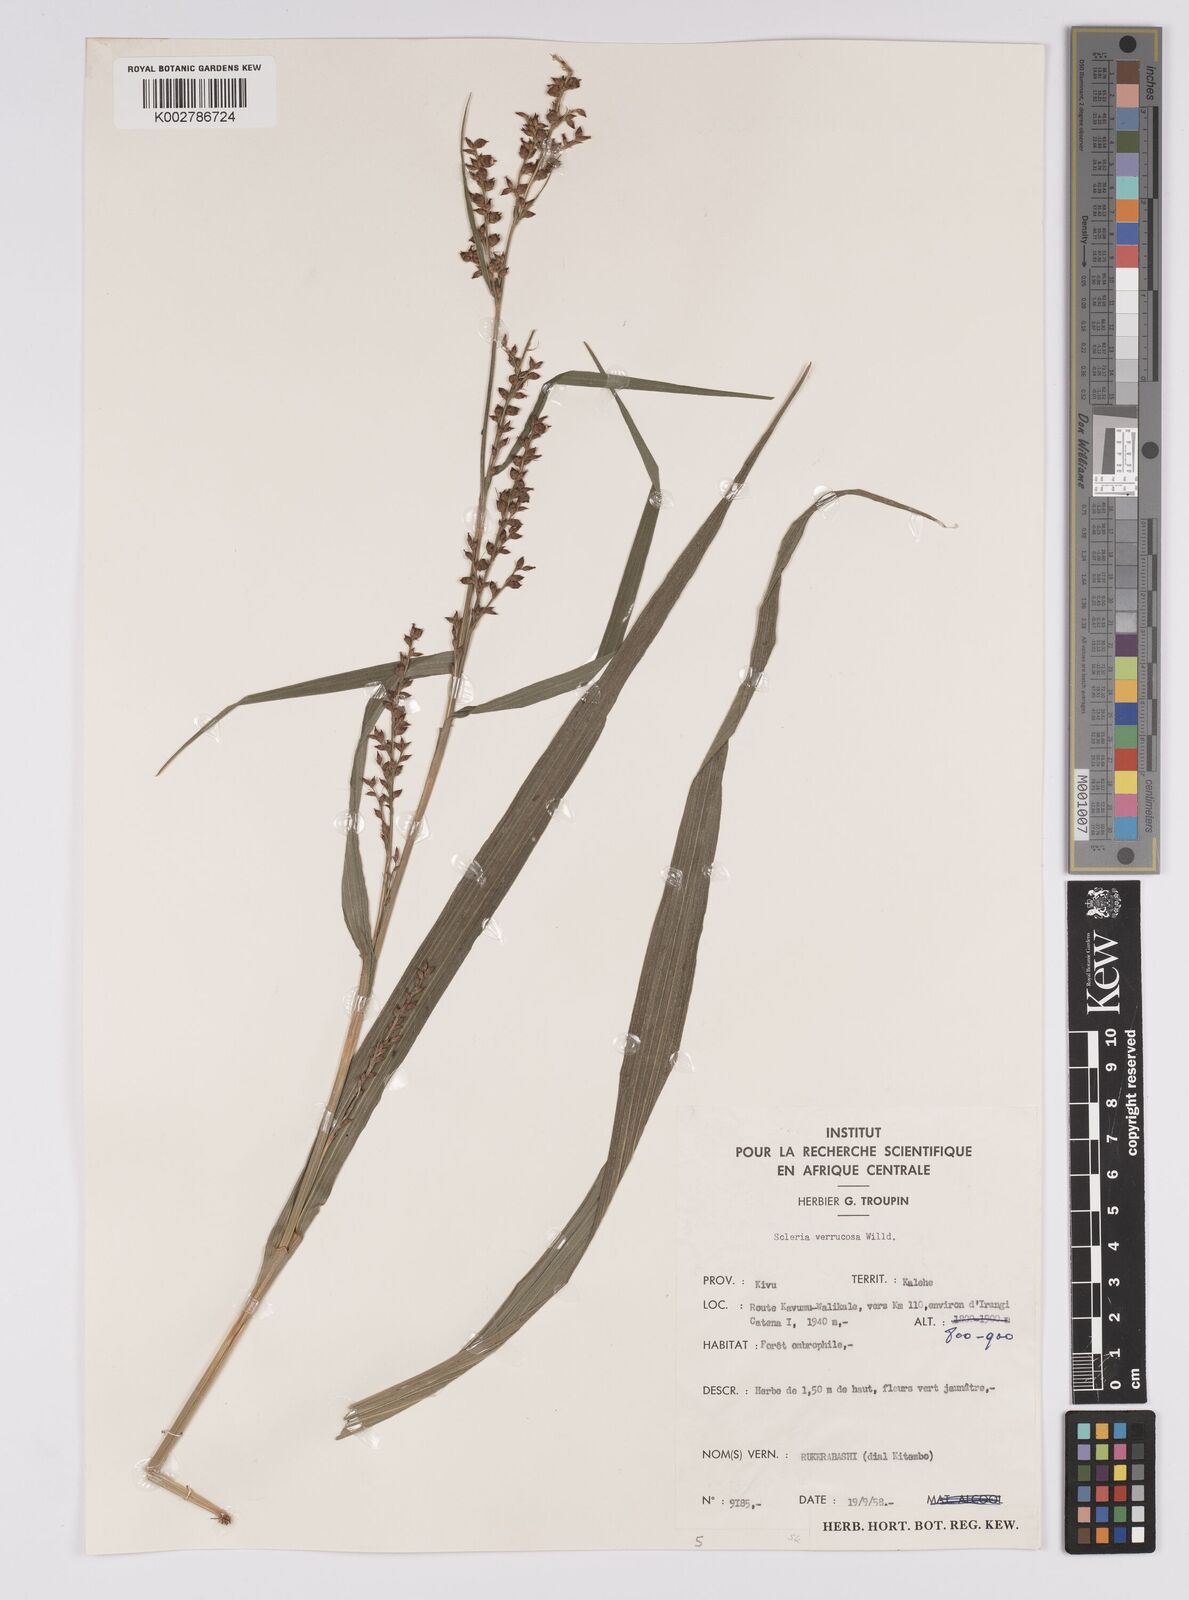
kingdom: Plantae
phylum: Tracheophyta
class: Liliopsida
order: Poales
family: Cyperaceae
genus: Scleria
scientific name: Scleria verrucosa
